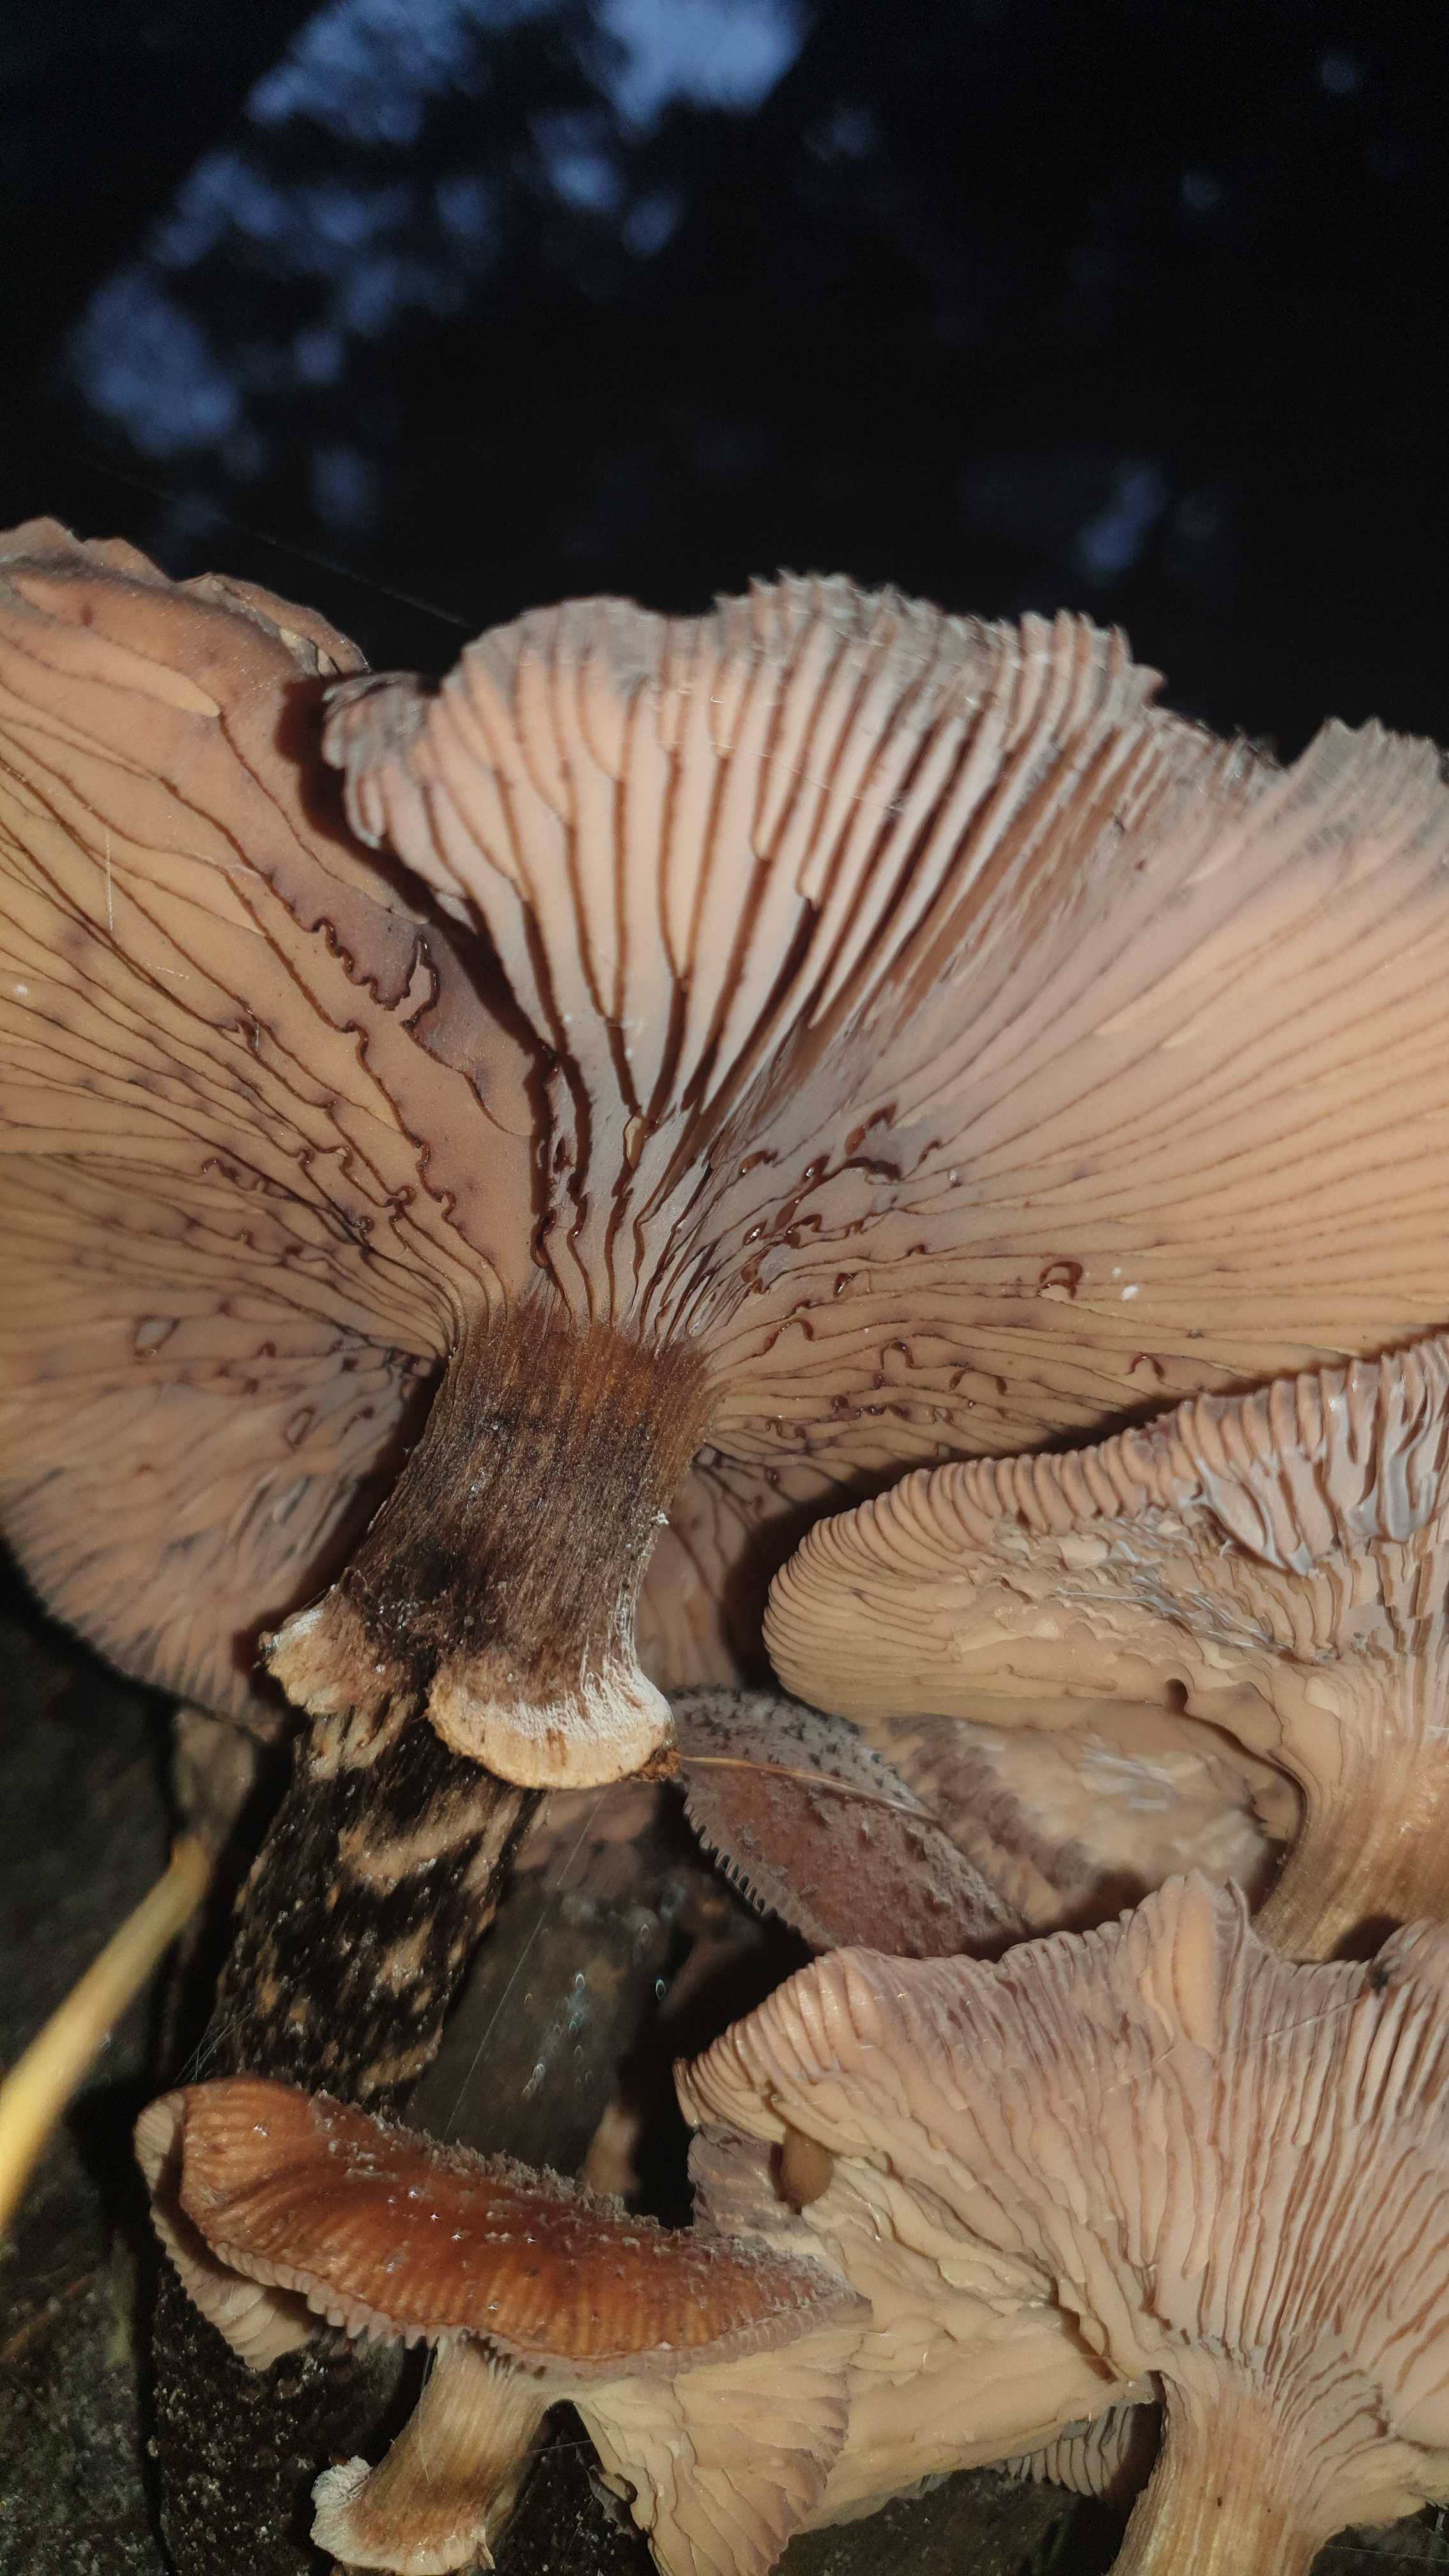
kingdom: Fungi
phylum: Basidiomycota
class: Agaricomycetes
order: Agaricales
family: Physalacriaceae
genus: Armillaria
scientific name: Armillaria ostoyae
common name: mørk honningsvamp
